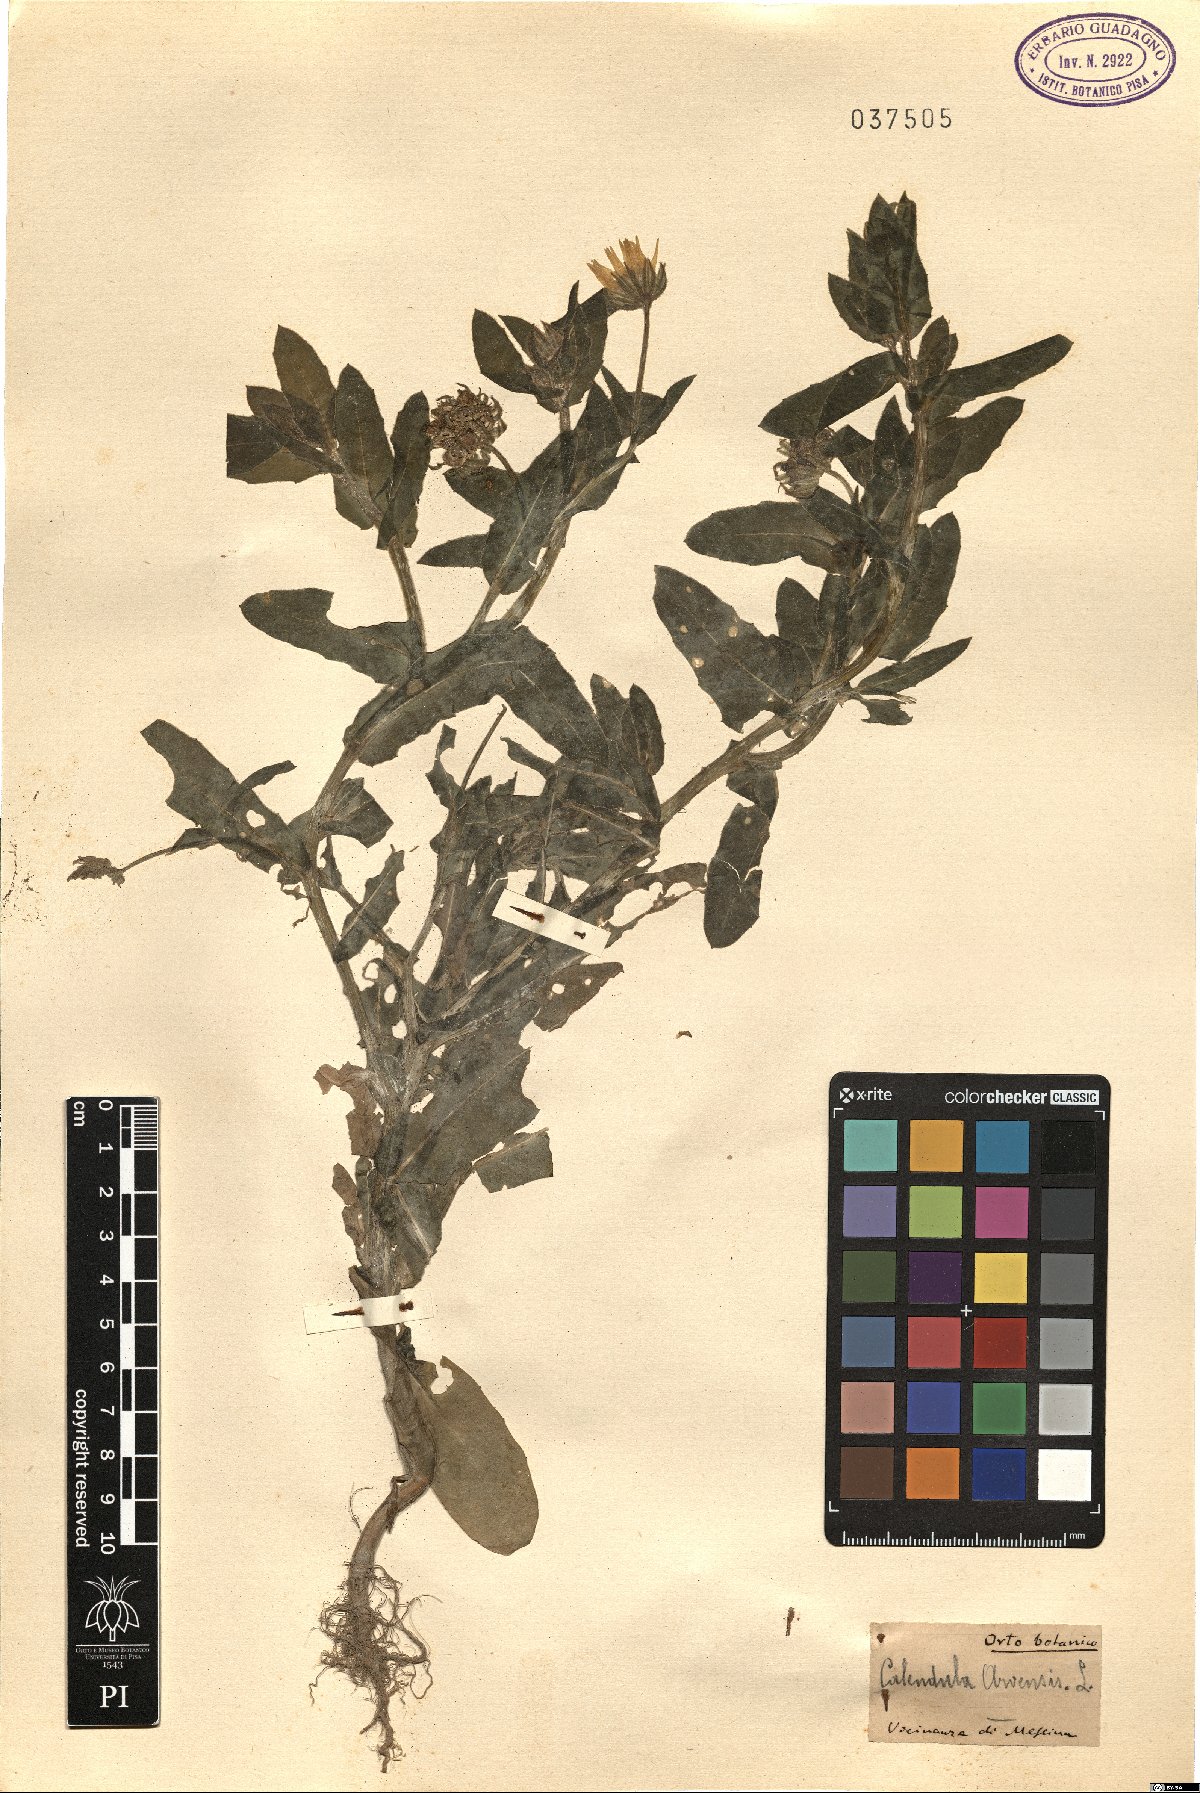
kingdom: Plantae
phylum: Tracheophyta
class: Magnoliopsida
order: Asterales
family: Asteraceae
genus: Calendula
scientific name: Calendula arvensis
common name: Field marigold
